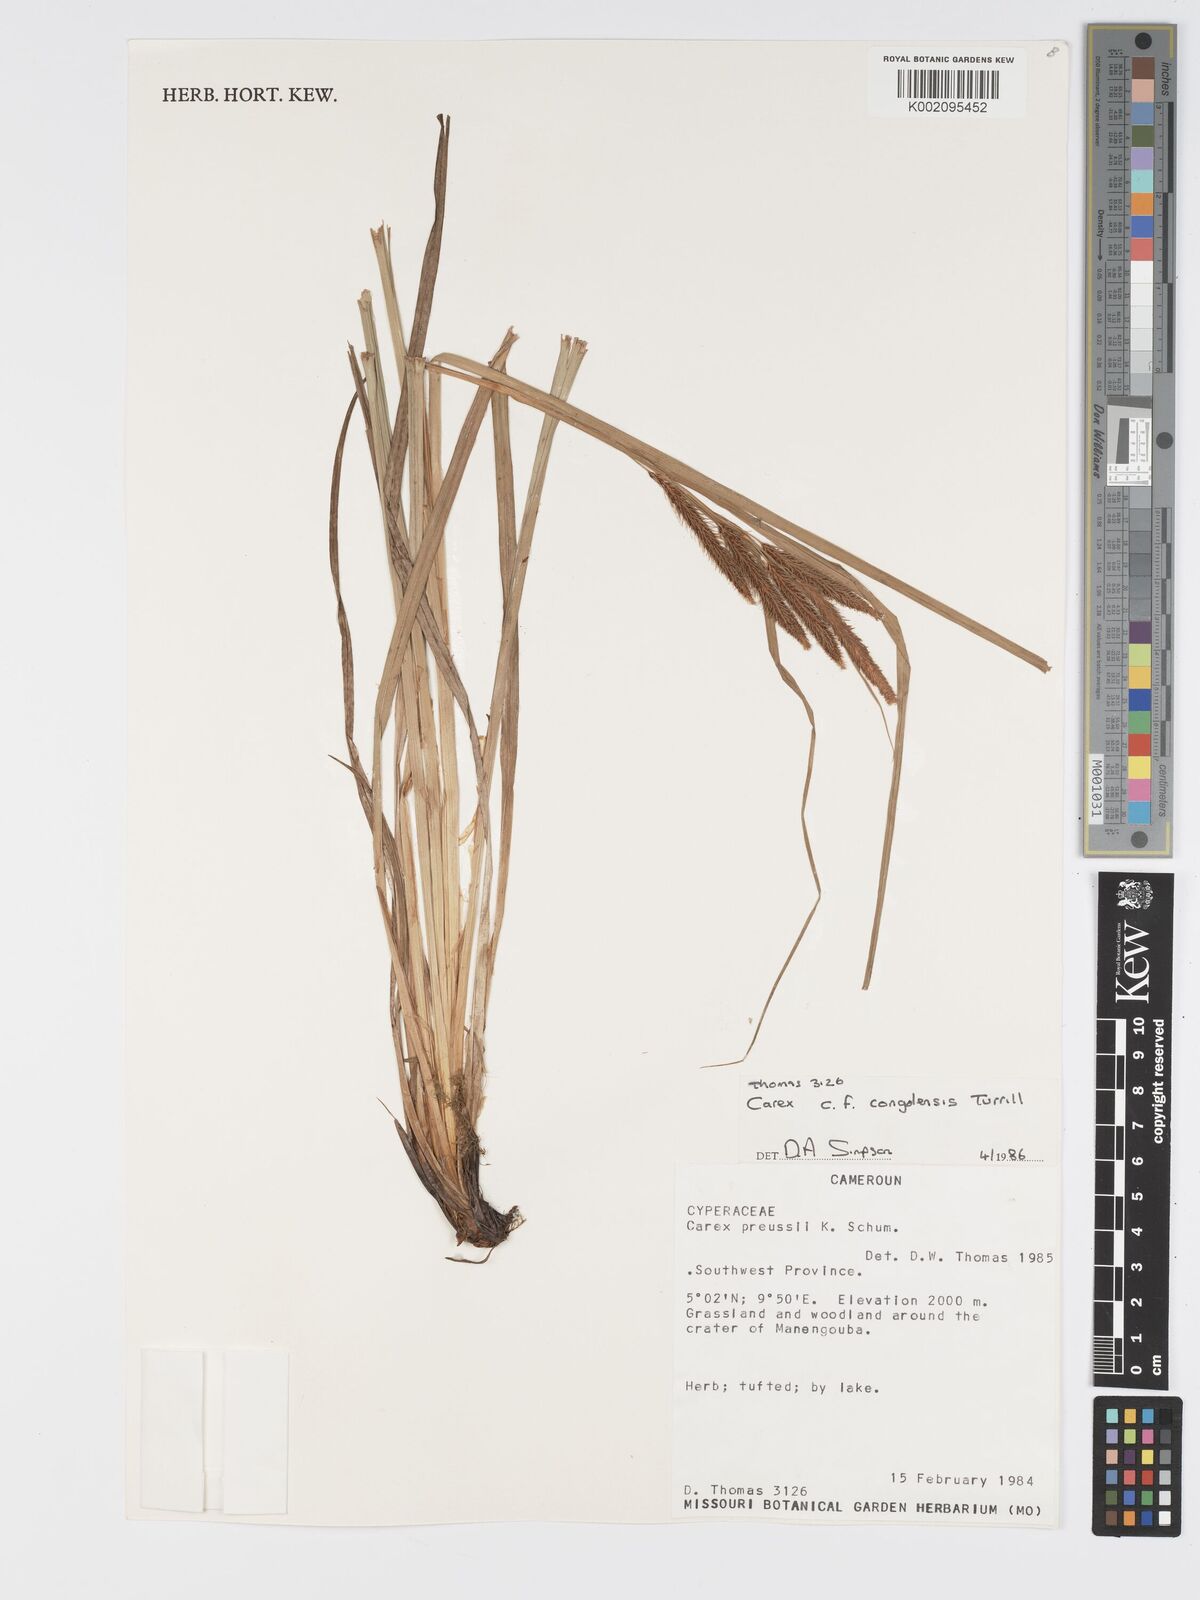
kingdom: Plantae
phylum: Tracheophyta
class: Liliopsida
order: Poales
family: Cyperaceae
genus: Carex
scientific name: Carex
